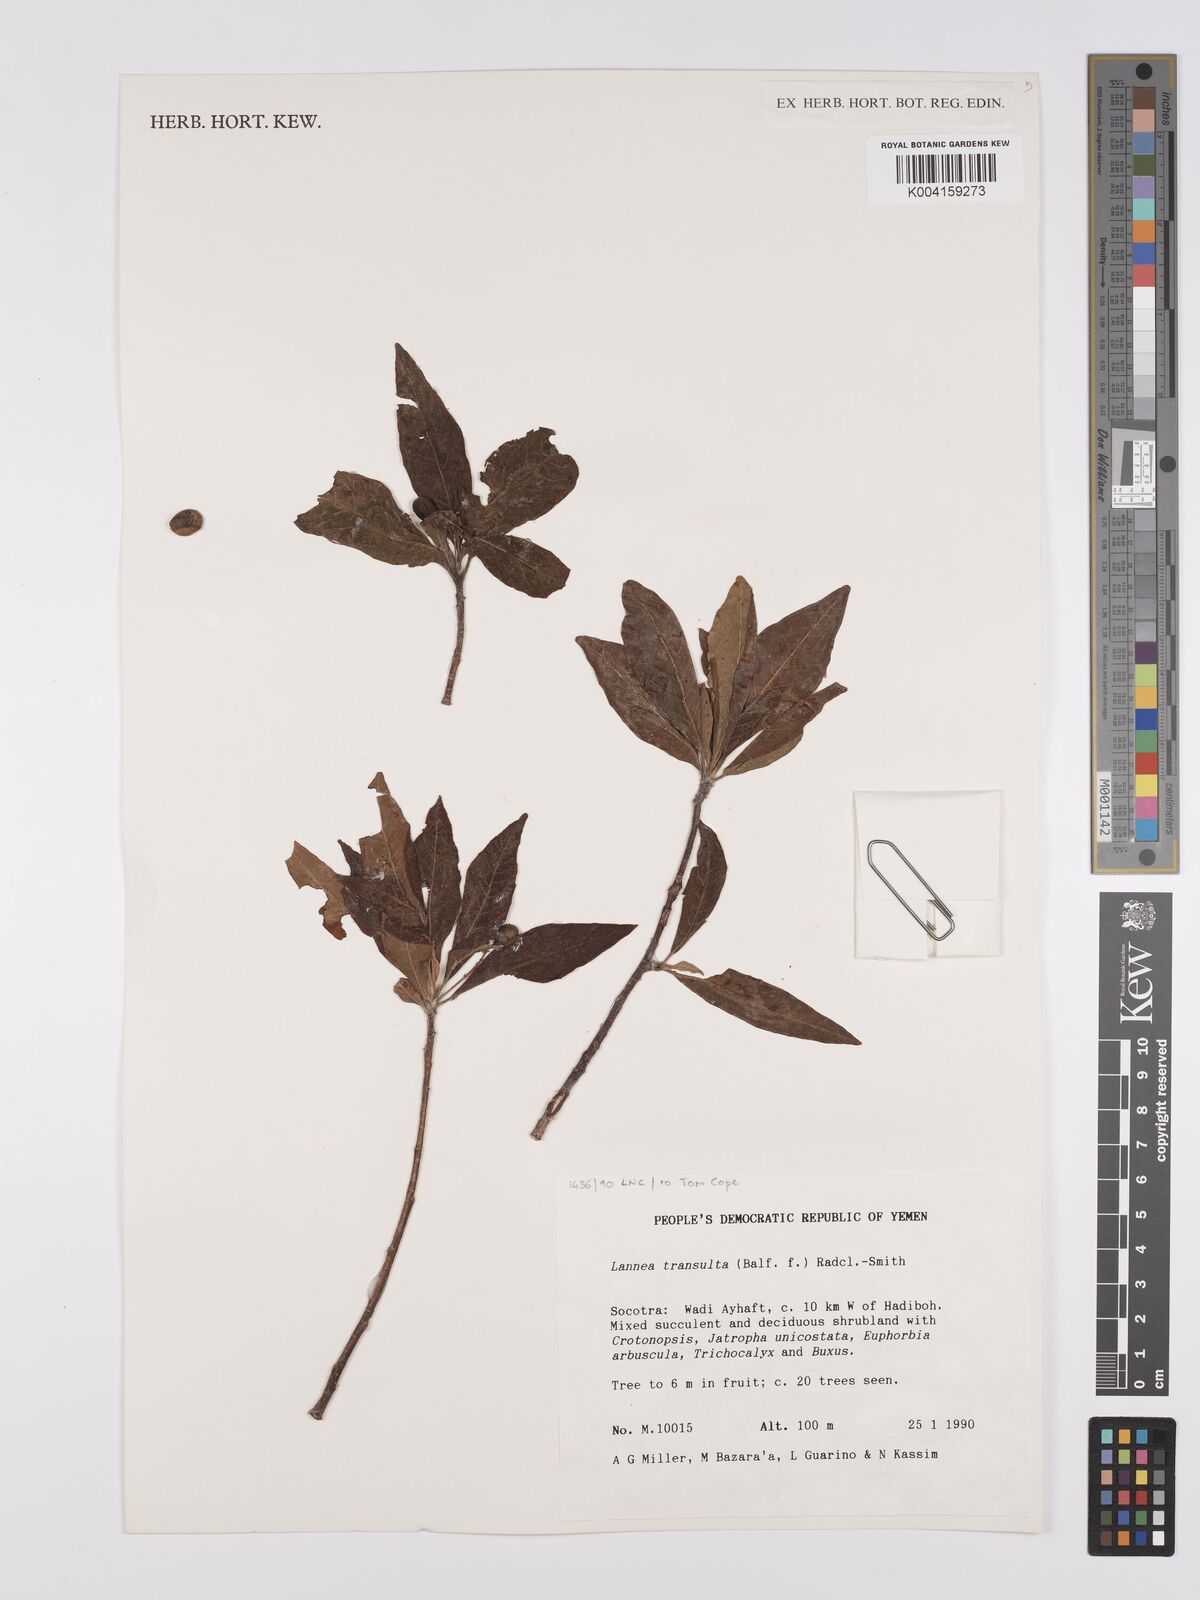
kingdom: Plantae
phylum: Tracheophyta
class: Magnoliopsida
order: Sapindales
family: Anacardiaceae
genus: Lannea
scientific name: Lannea transulta
